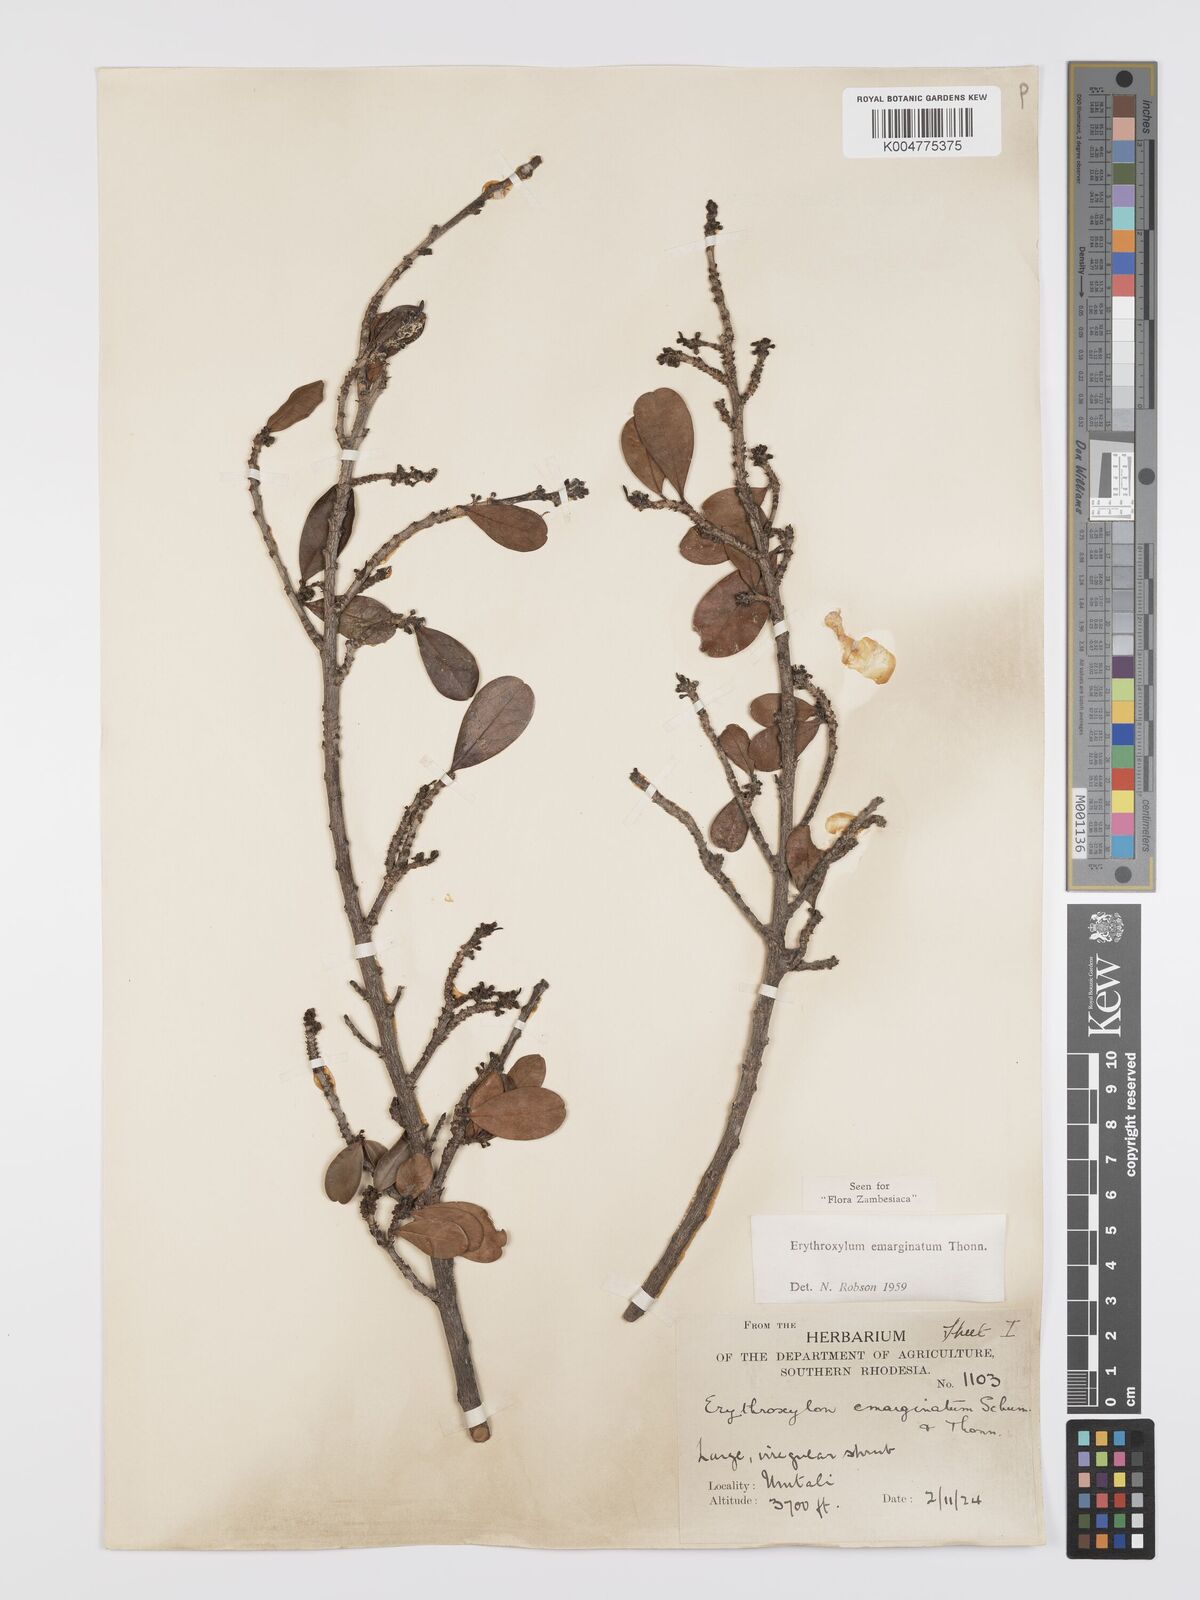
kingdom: Plantae
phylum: Tracheophyta
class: Magnoliopsida
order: Malpighiales
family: Erythroxylaceae
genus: Erythroxylum
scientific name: Erythroxylum emarginatum
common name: African coca-tree
